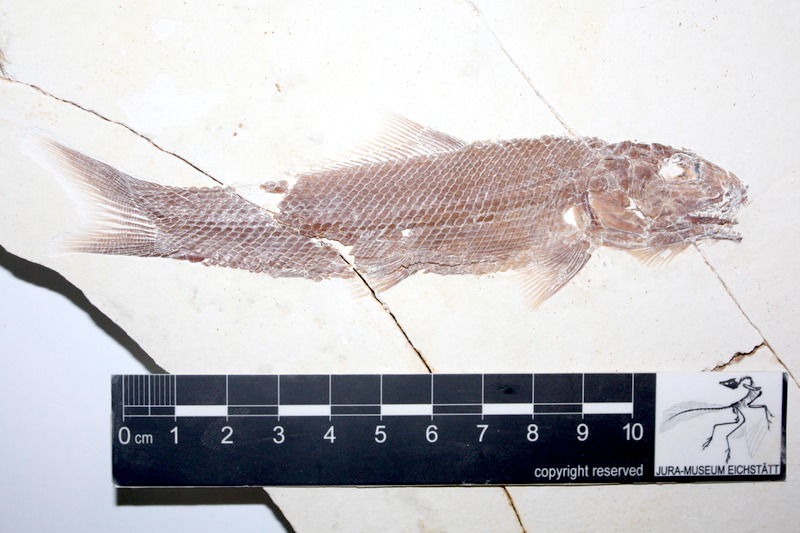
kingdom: Animalia
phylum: Chordata
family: Ophiopsiellidae
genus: Ophiopsiella
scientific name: Ophiopsiella attenuata
